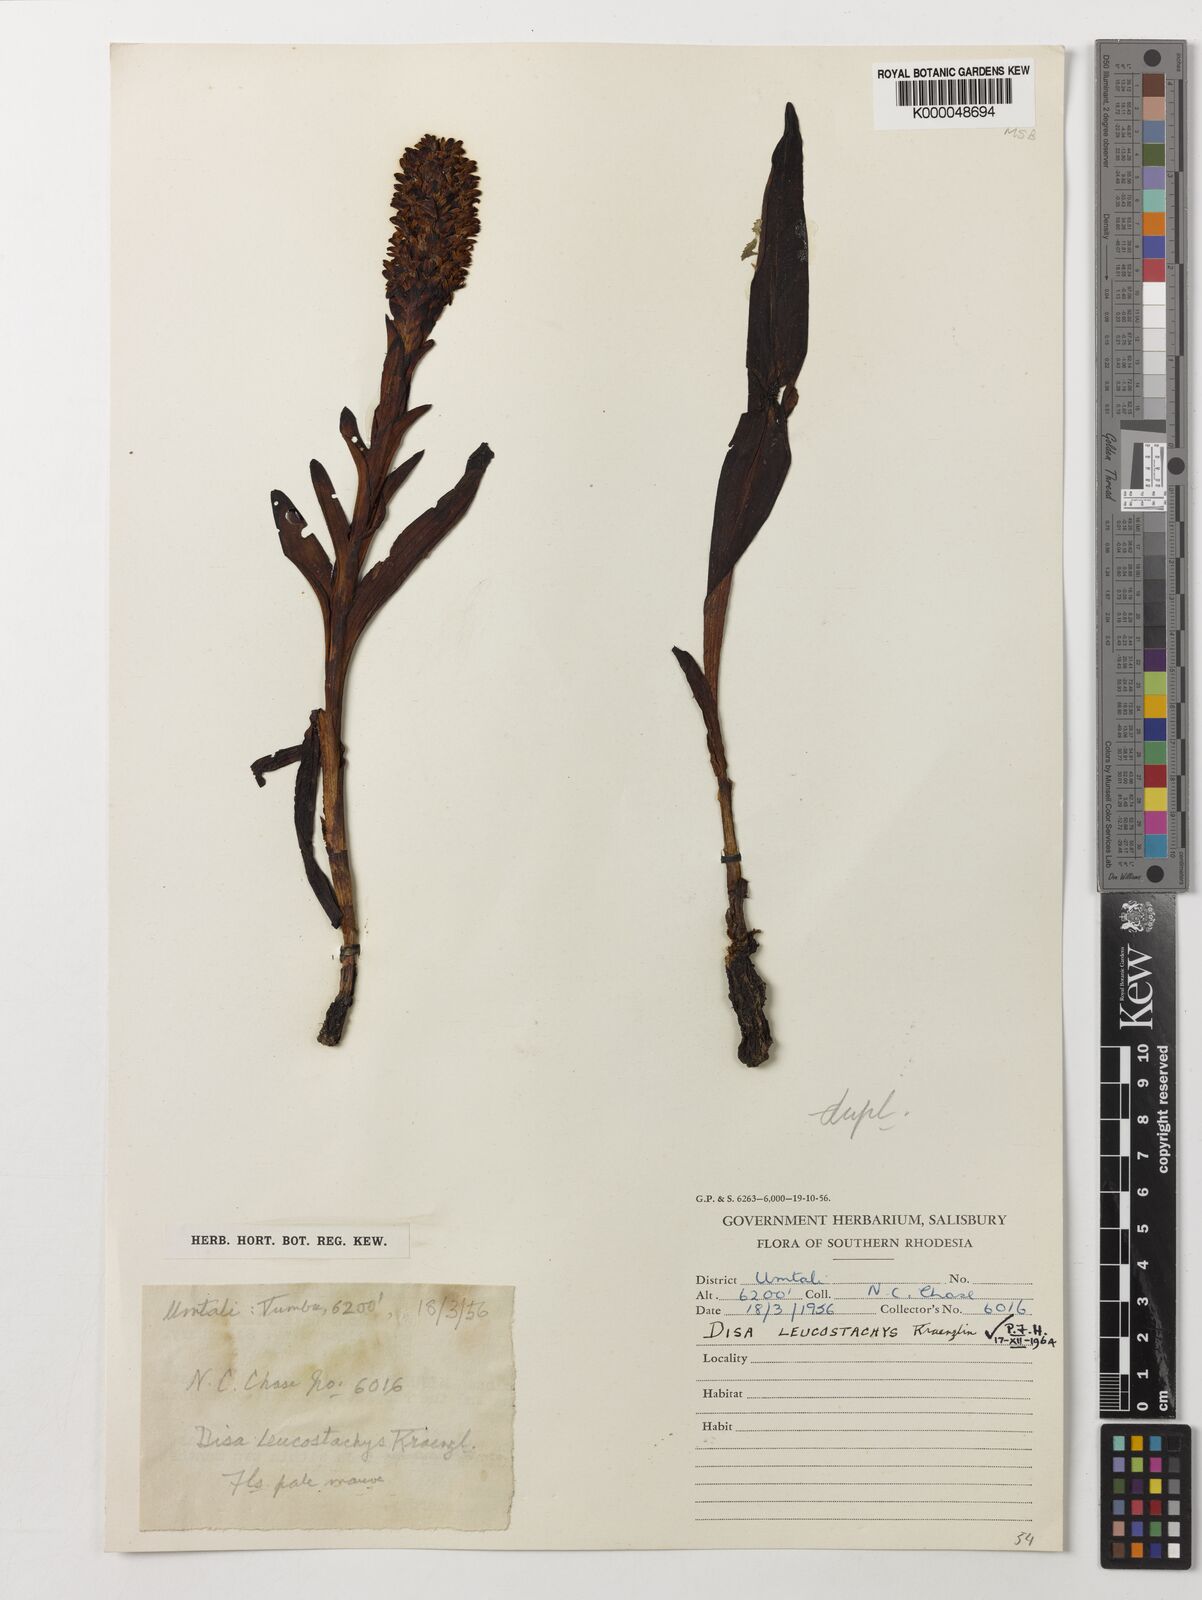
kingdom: Plantae
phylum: Tracheophyta
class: Liliopsida
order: Asparagales
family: Orchidaceae
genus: Disa
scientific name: Disa fragrans
